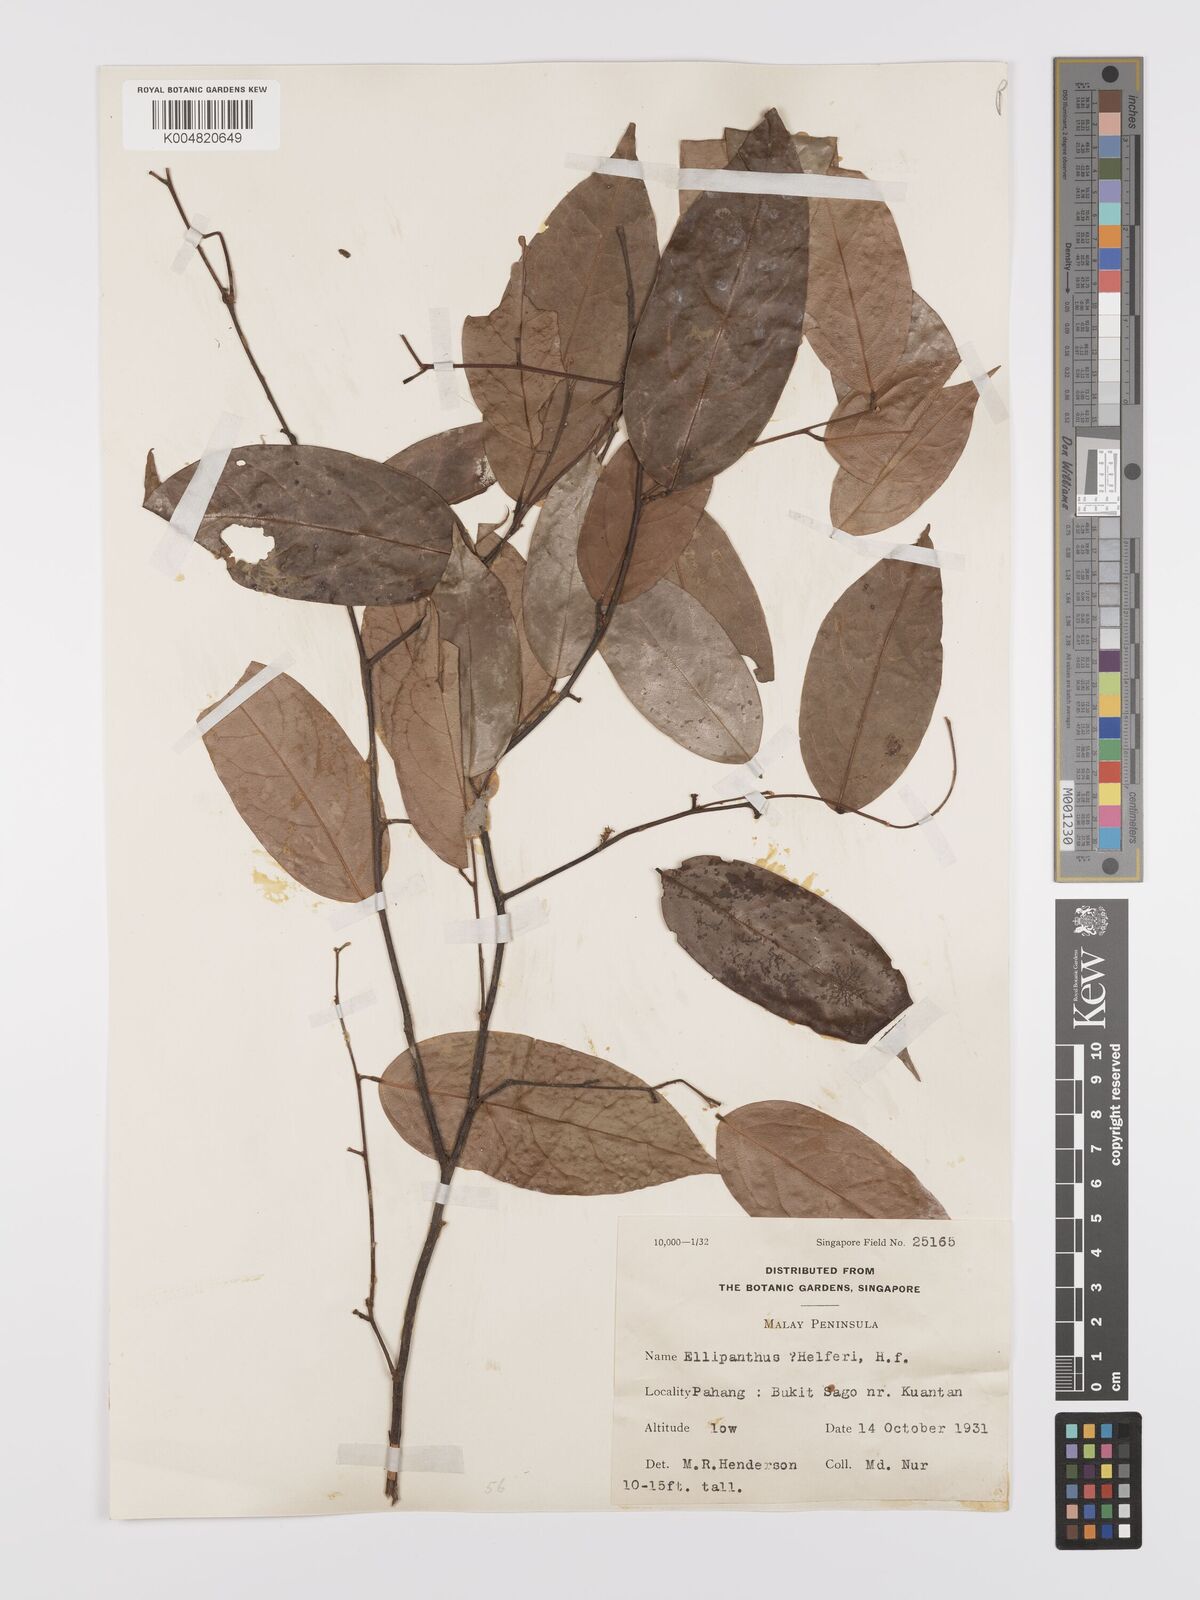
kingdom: Plantae
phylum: Tracheophyta
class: Magnoliopsida
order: Oxalidales
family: Connaraceae
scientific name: Connaraceae
